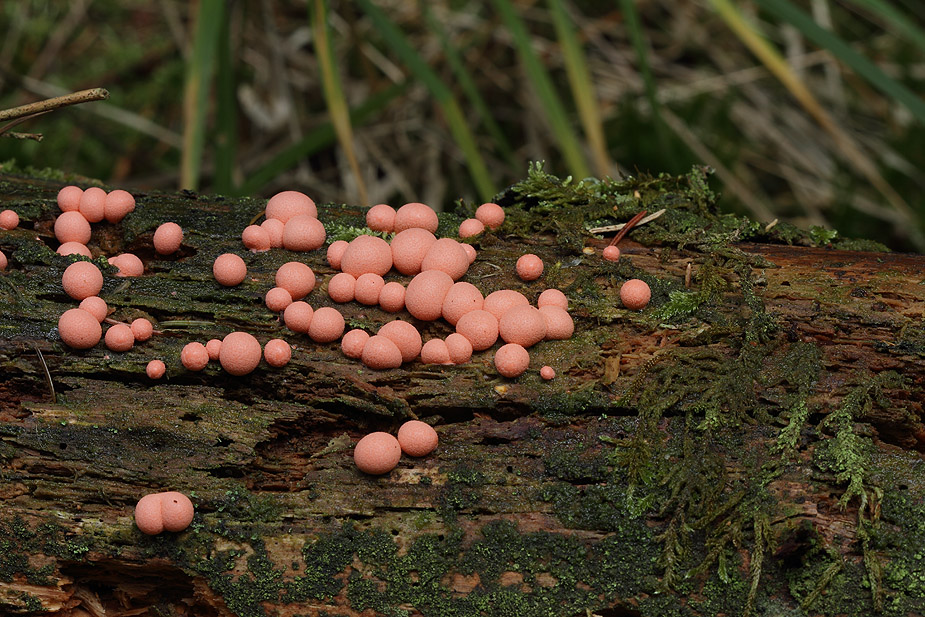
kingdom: Protozoa
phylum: Mycetozoa
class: Myxomycetes
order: Cribrariales
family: Tubiferaceae
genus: Lycogala
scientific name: Lycogala epidendrum
